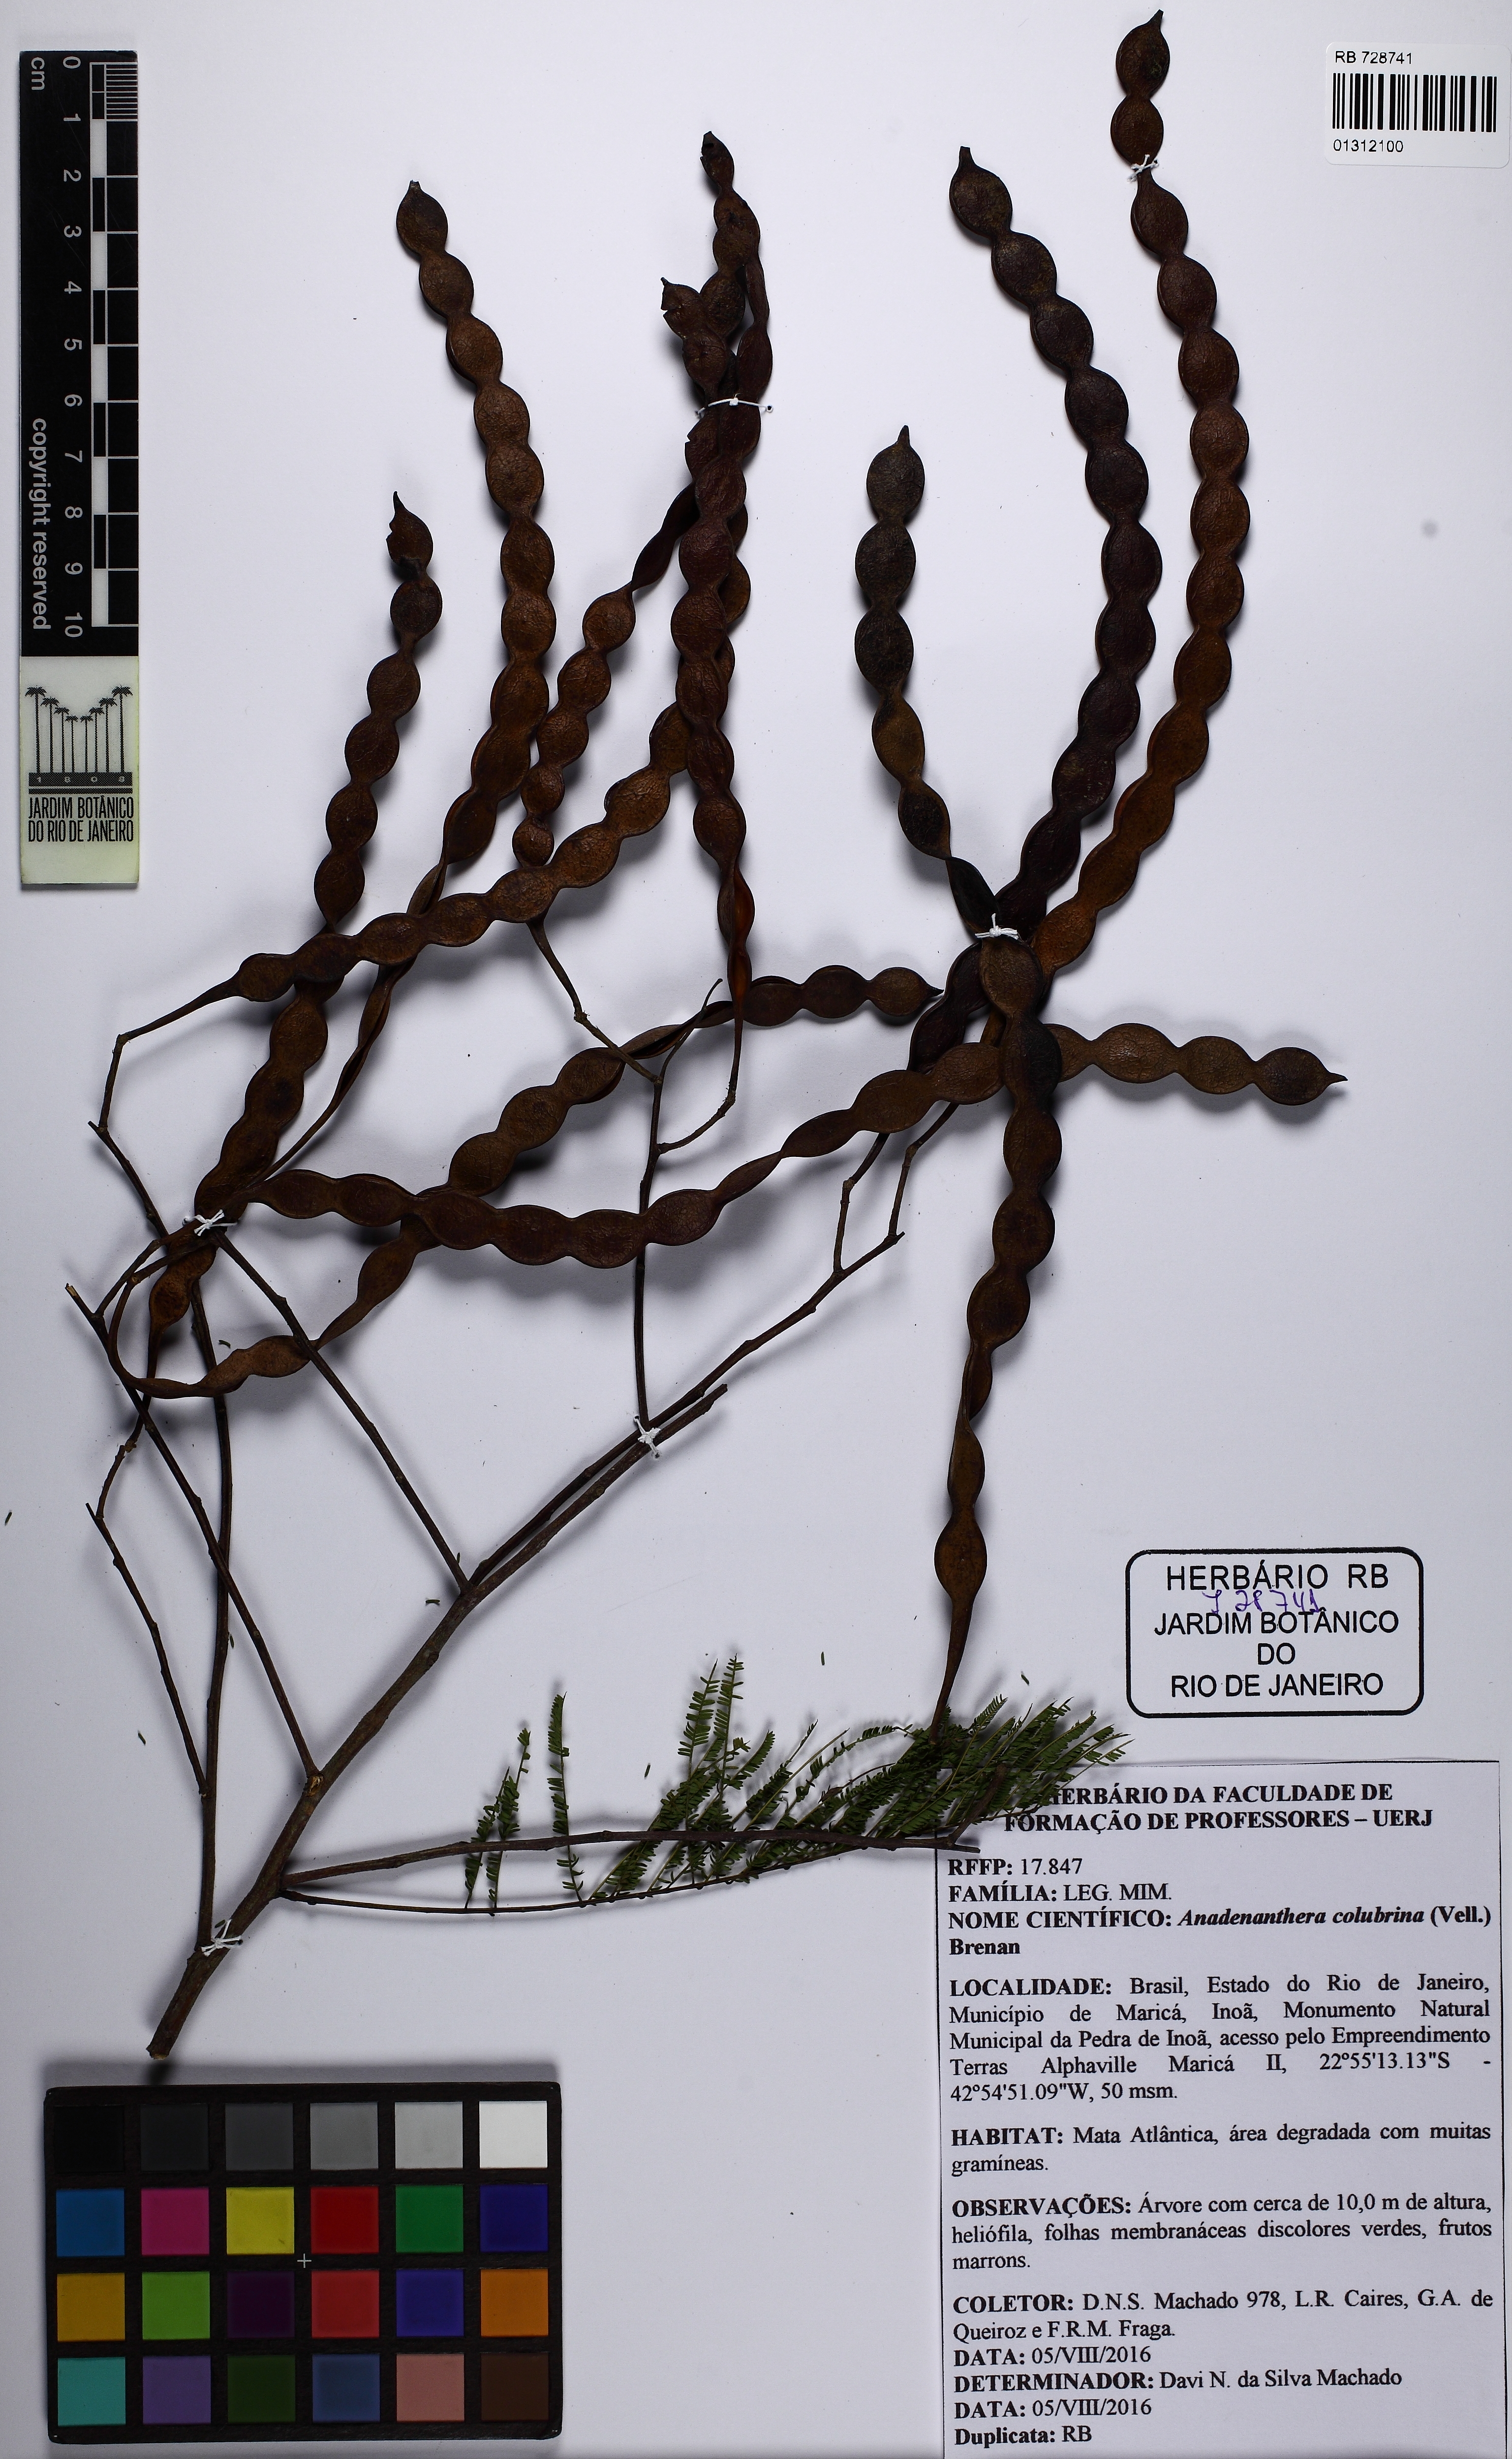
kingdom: Plantae
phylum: Tracheophyta
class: Magnoliopsida
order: Fabales
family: Fabaceae
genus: Anadenanthera
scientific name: Anadenanthera colubrina
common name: Curupay
